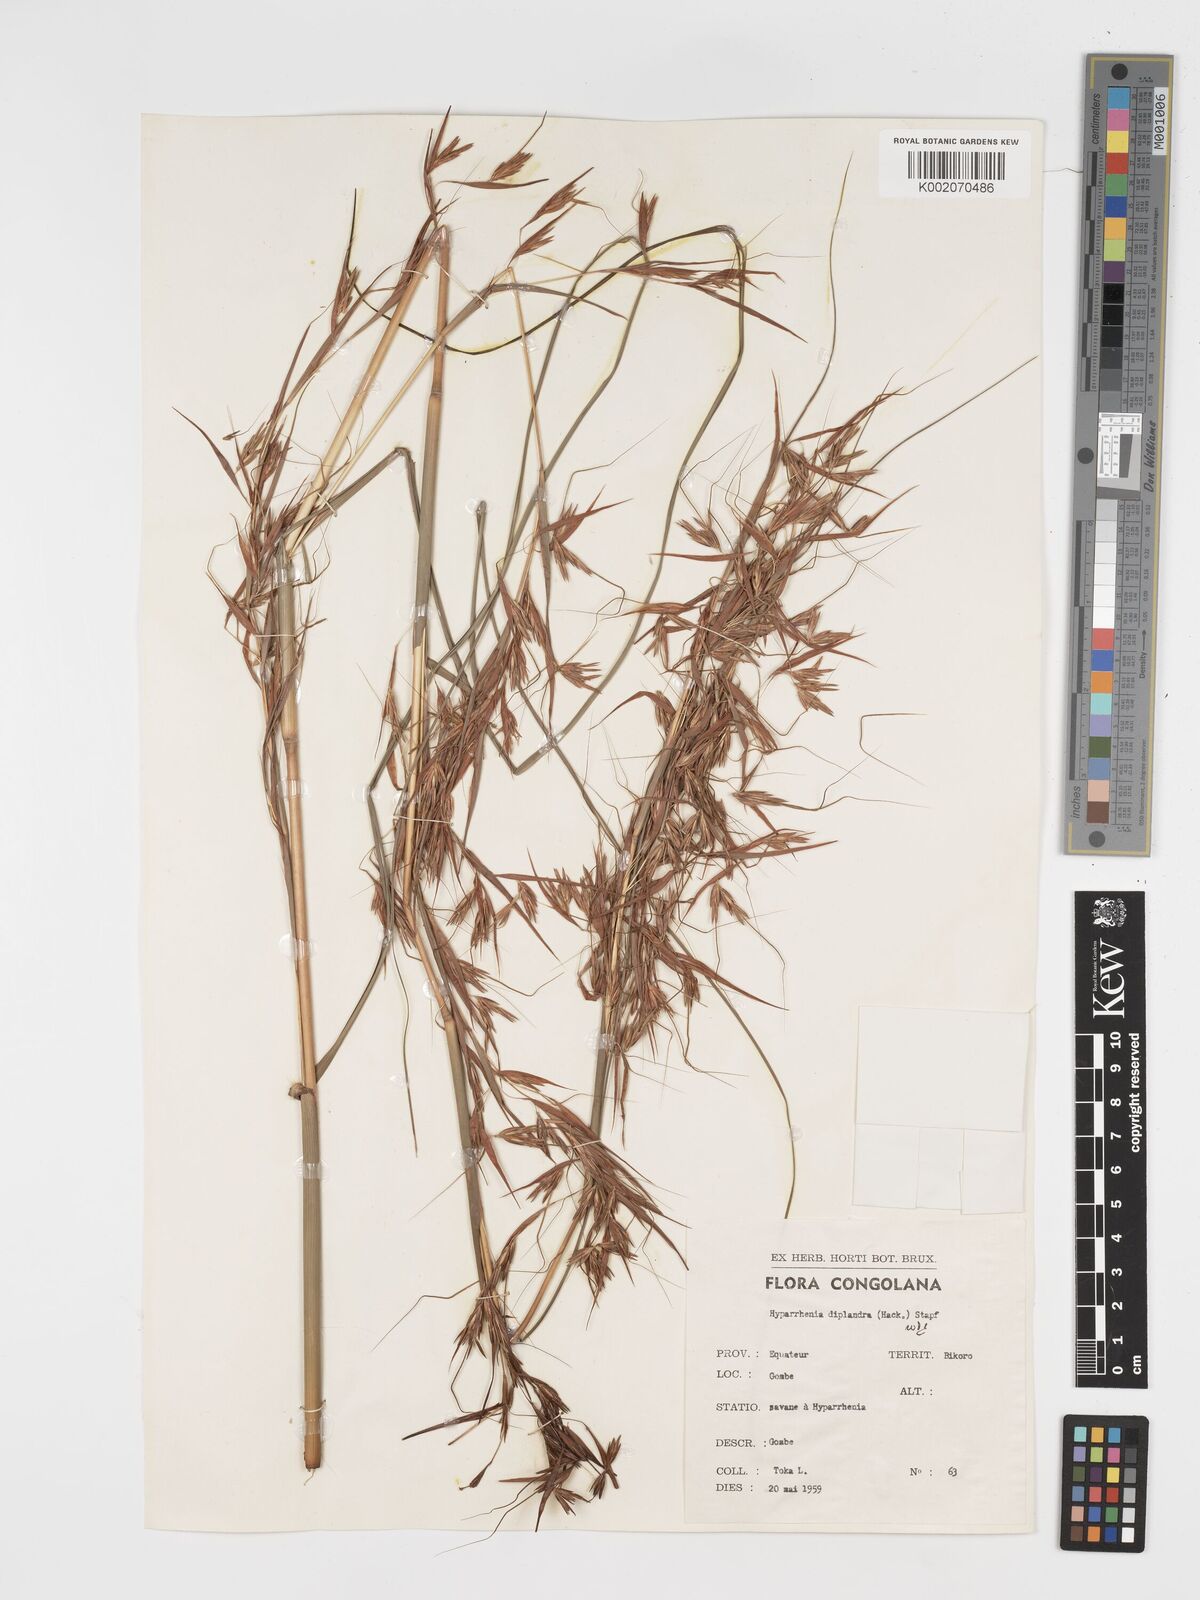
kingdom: Plantae
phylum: Tracheophyta
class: Liliopsida
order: Poales
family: Poaceae
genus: Hyparrhenia
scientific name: Hyparrhenia diplandra
